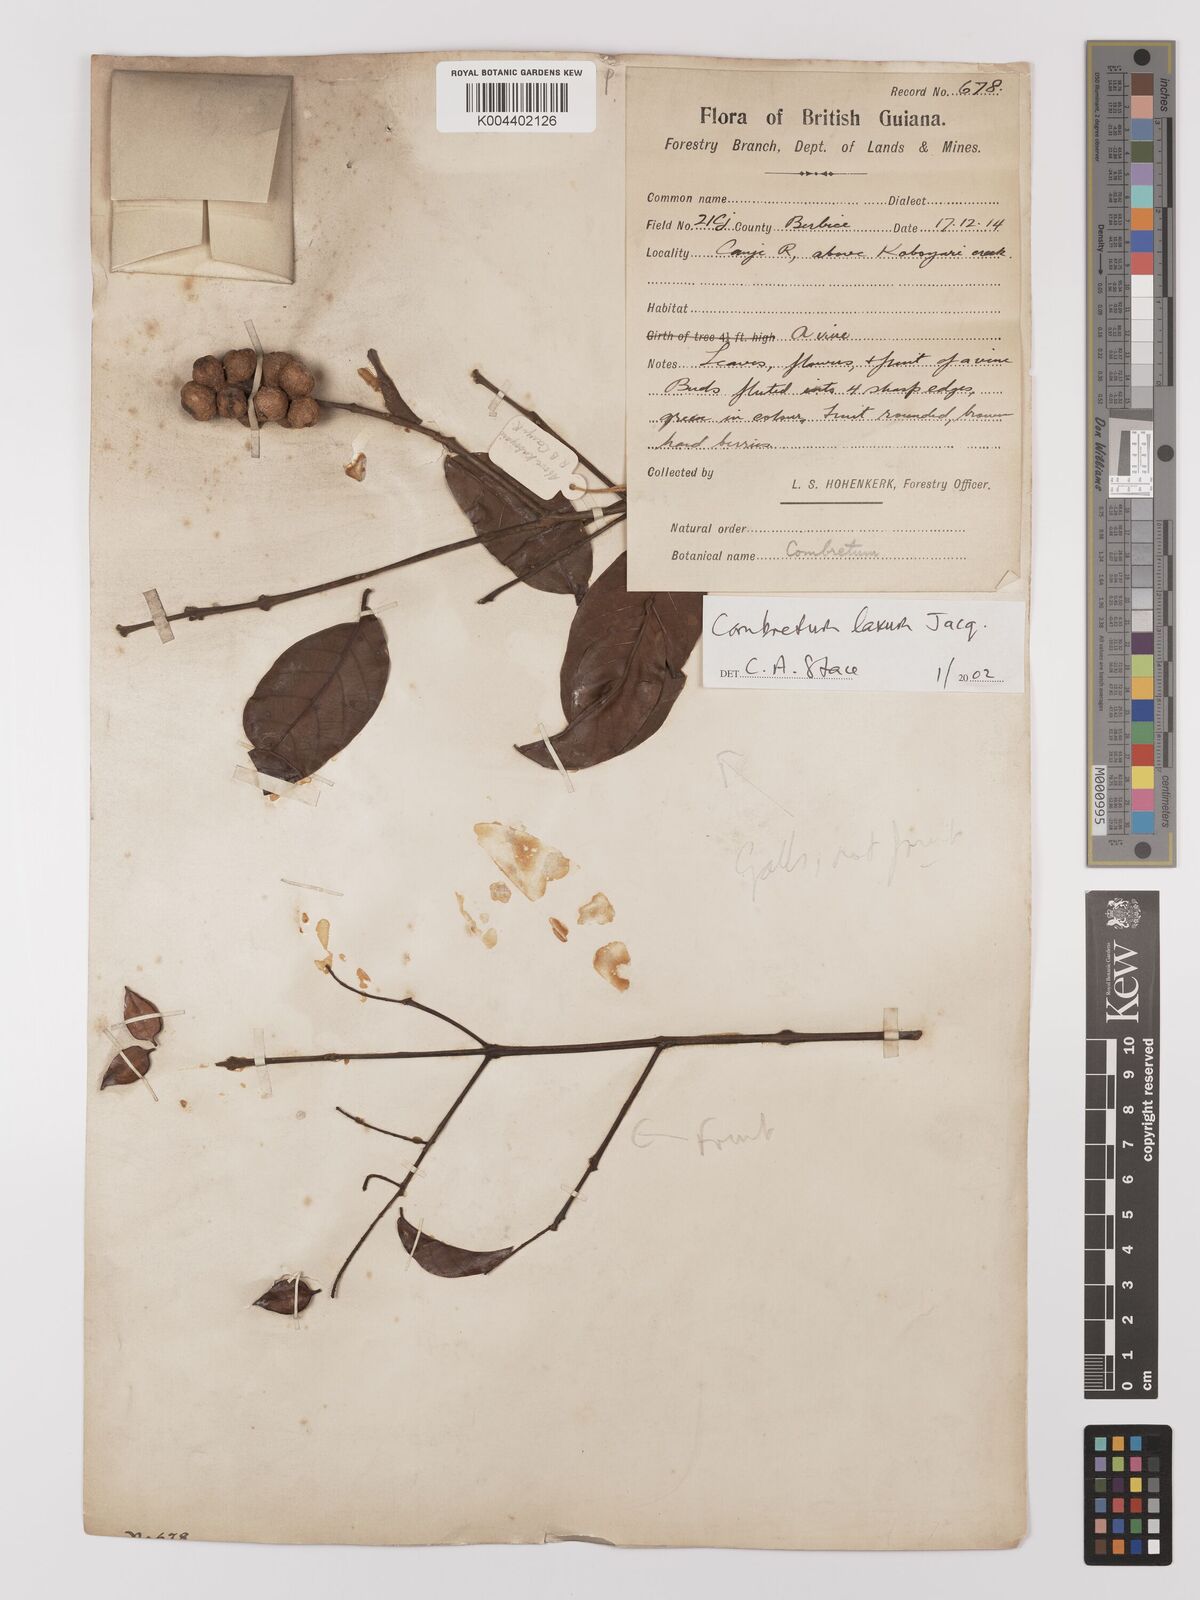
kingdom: Plantae
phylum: Tracheophyta
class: Magnoliopsida
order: Myrtales
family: Combretaceae
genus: Combretum
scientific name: Combretum
